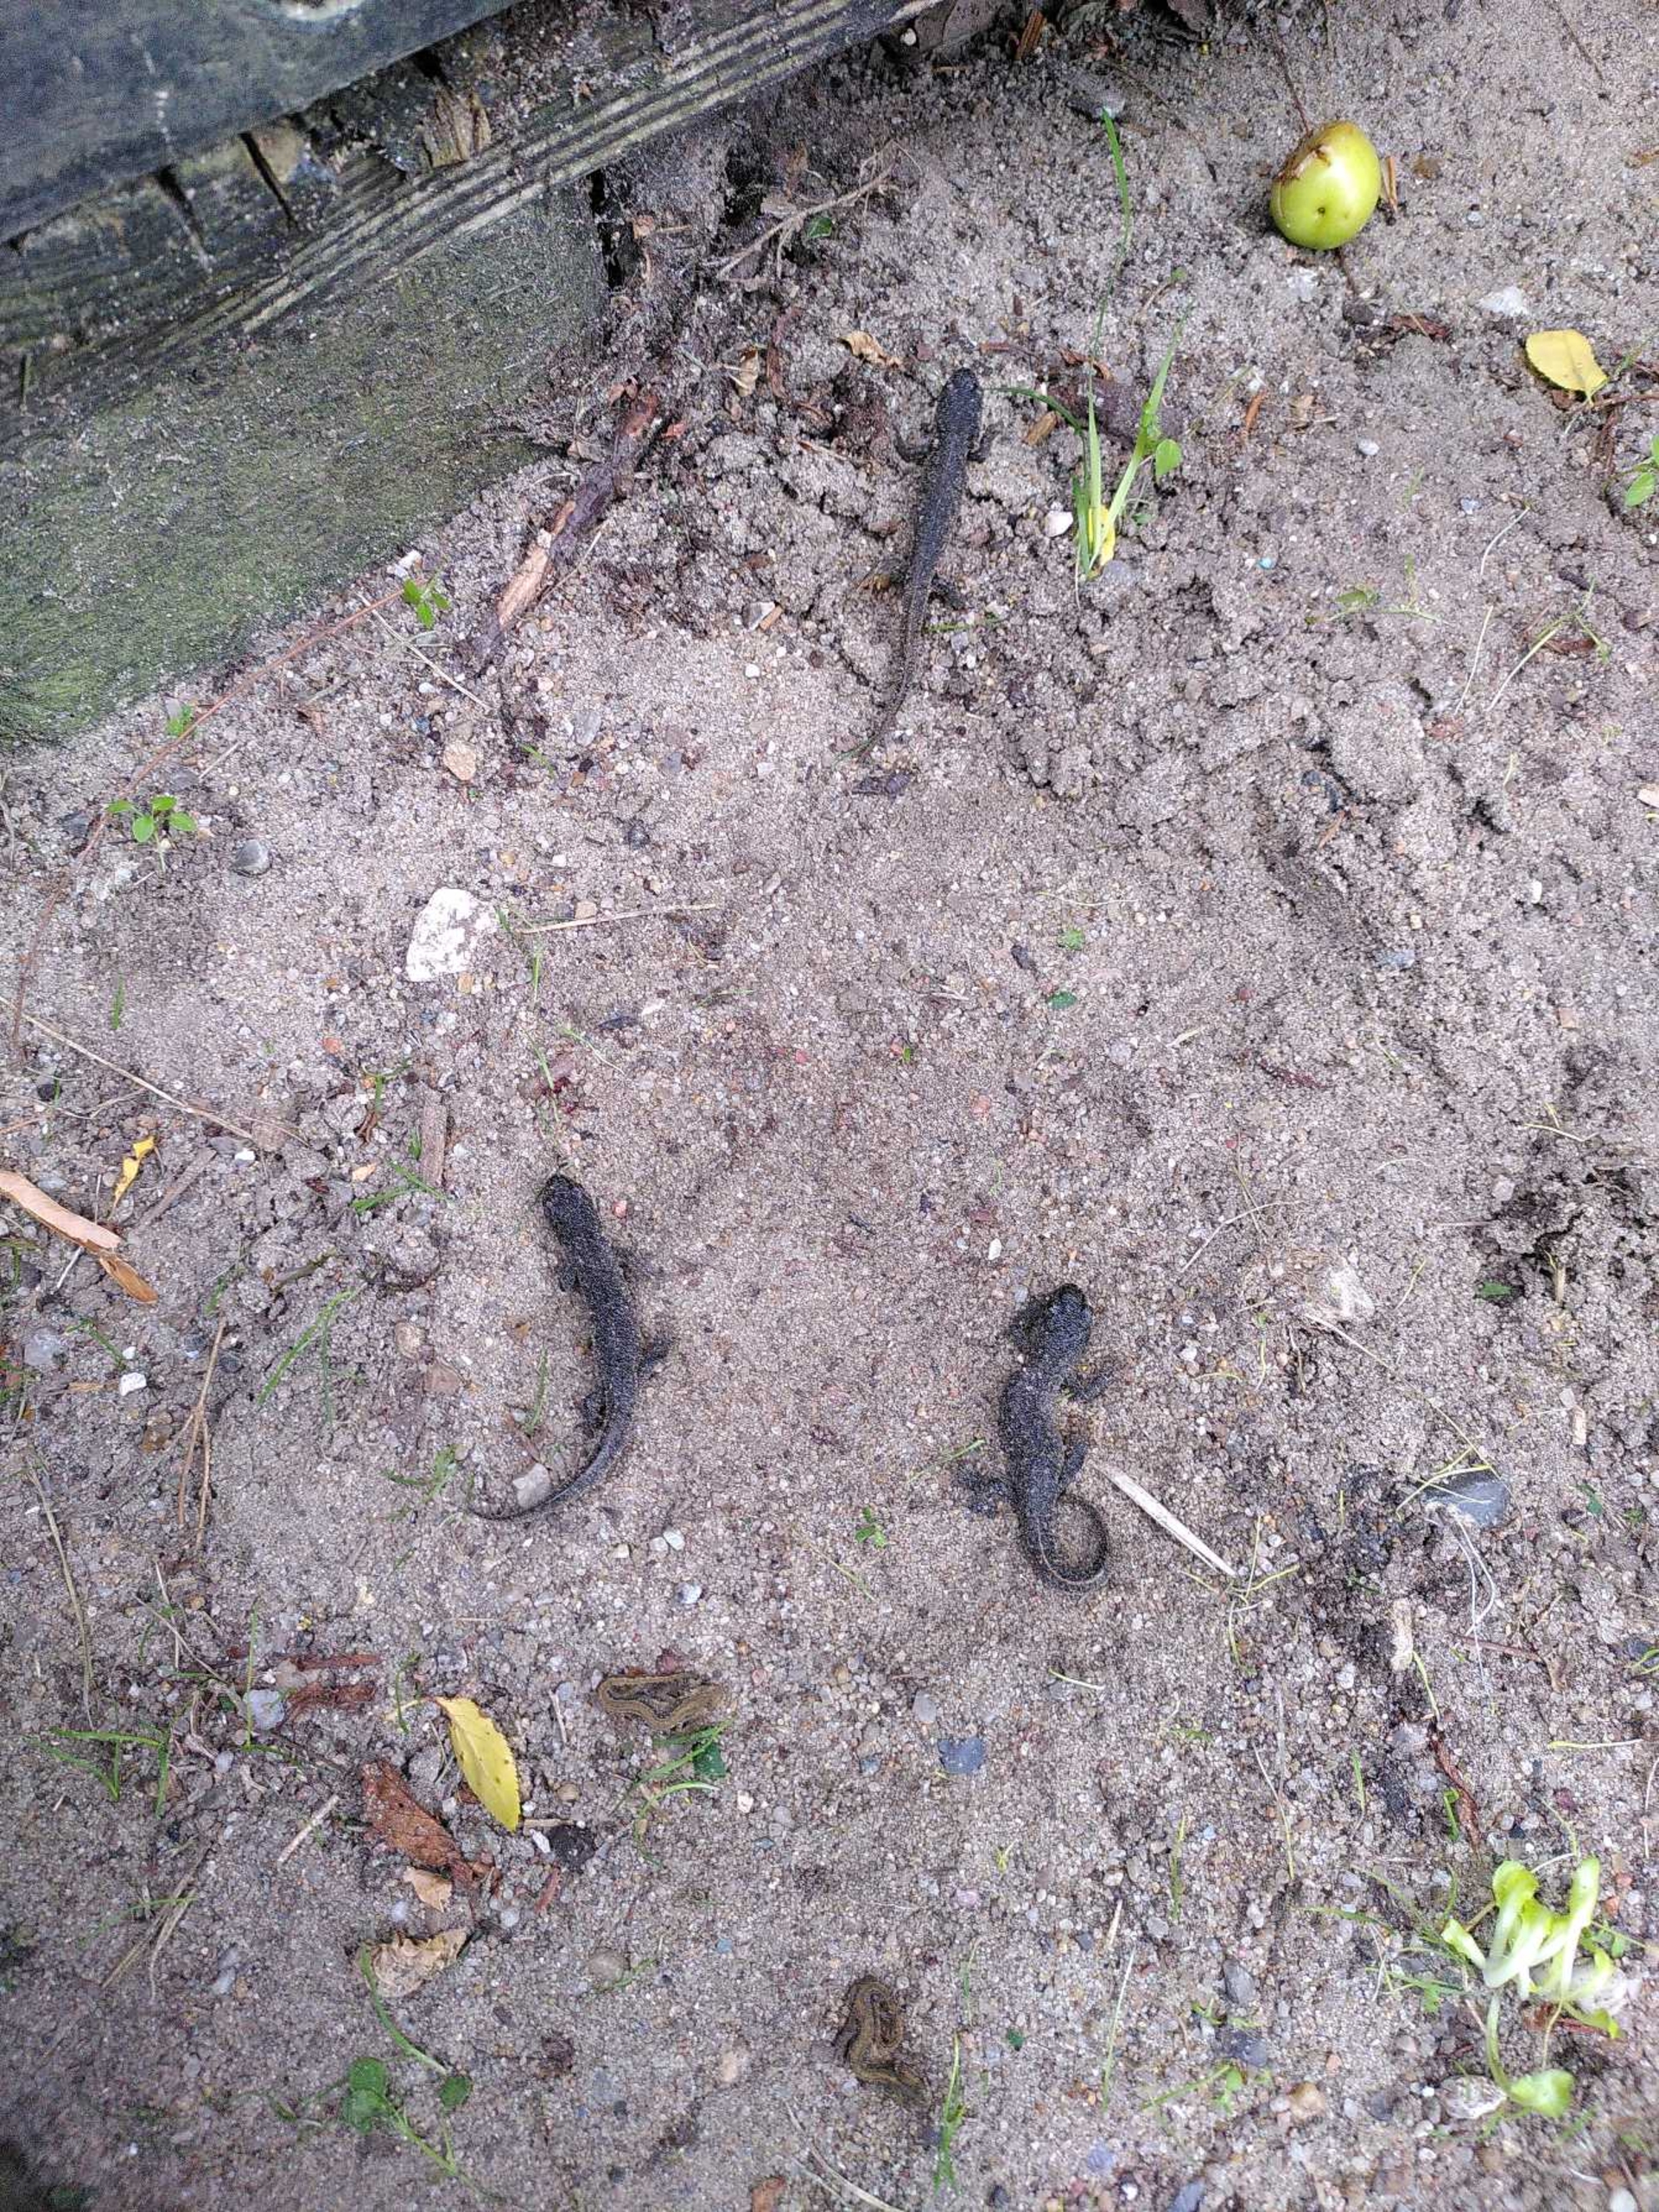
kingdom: Animalia
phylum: Chordata
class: Amphibia
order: Caudata
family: Salamandridae
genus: Triturus
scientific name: Triturus cristatus
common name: Stor vandsalamander
